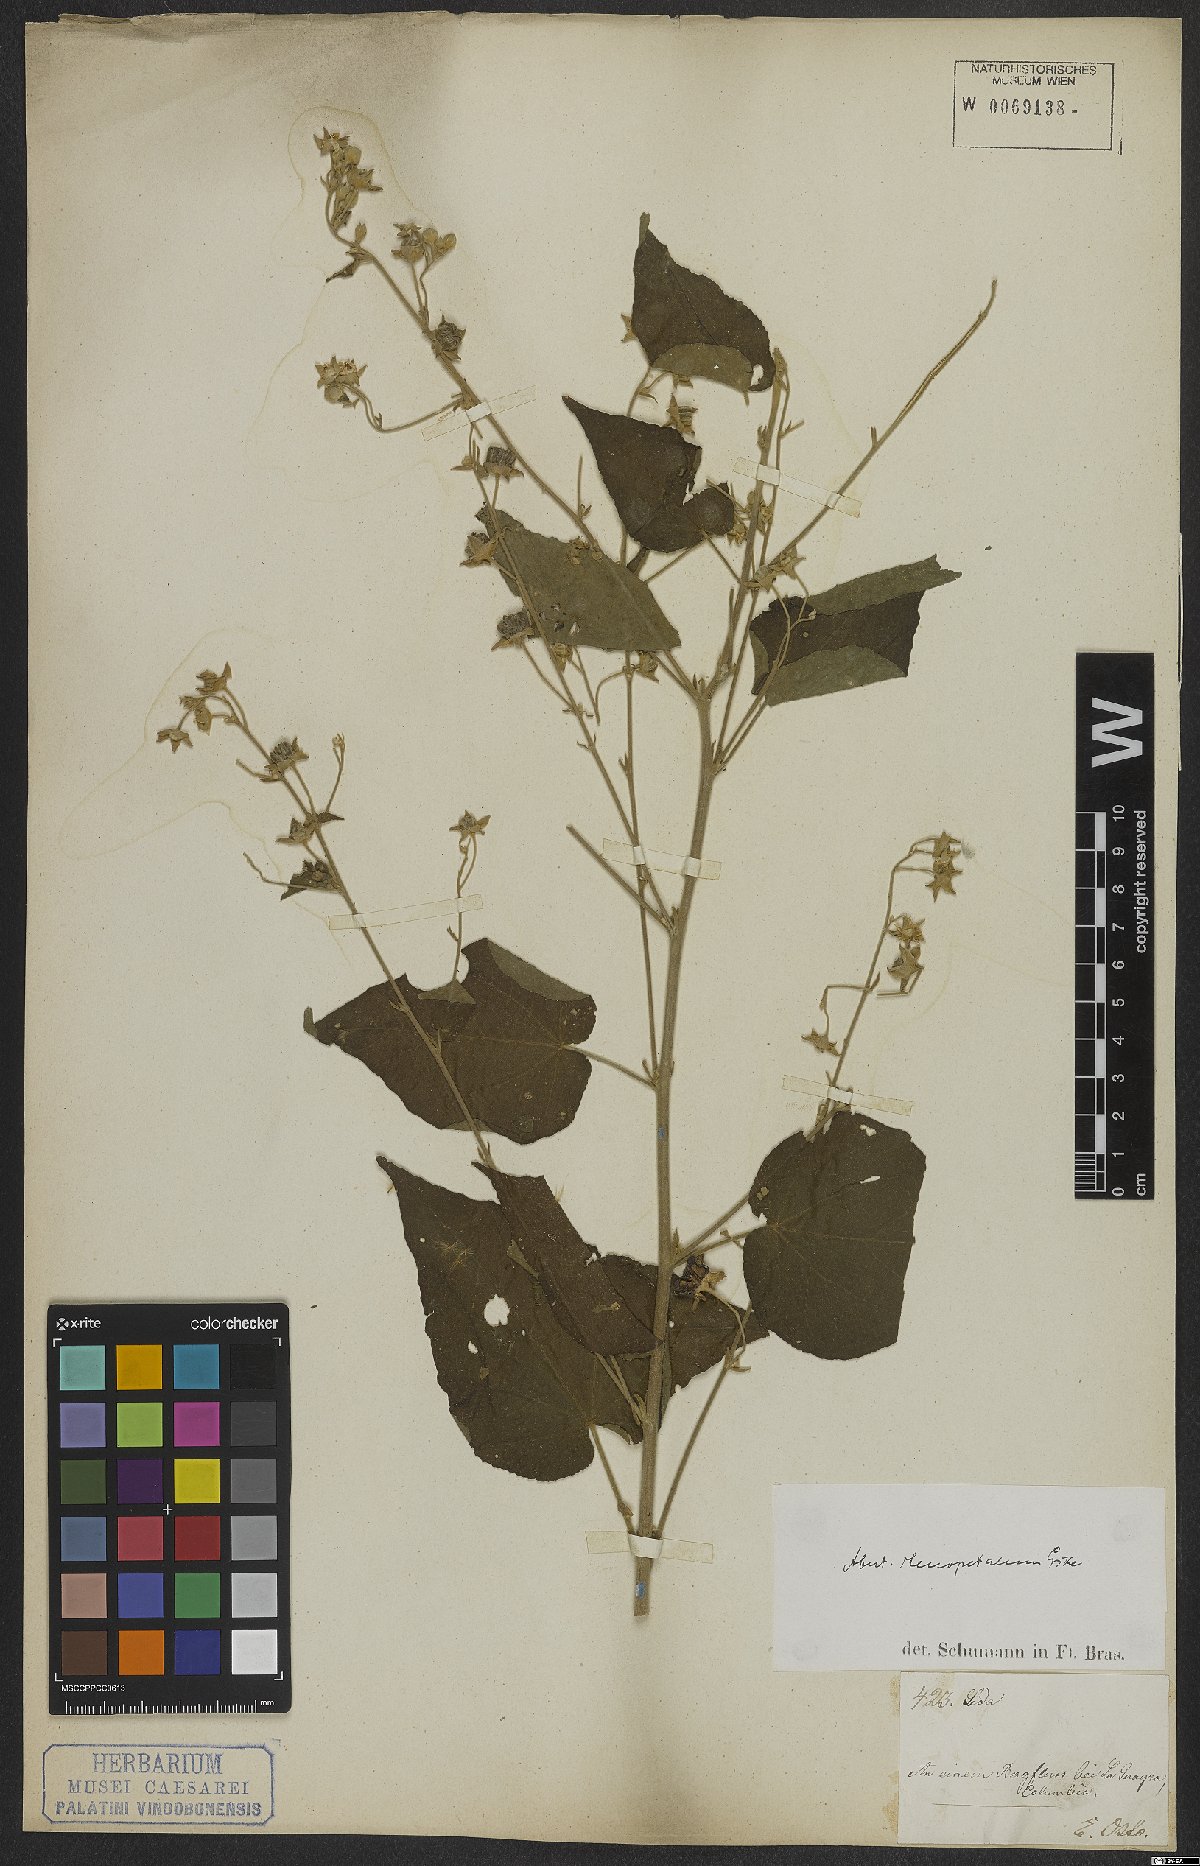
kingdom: Plantae
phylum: Tracheophyta
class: Magnoliopsida
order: Malvales
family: Malvaceae
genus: Abutilon
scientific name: Abutilon stenopetalum
